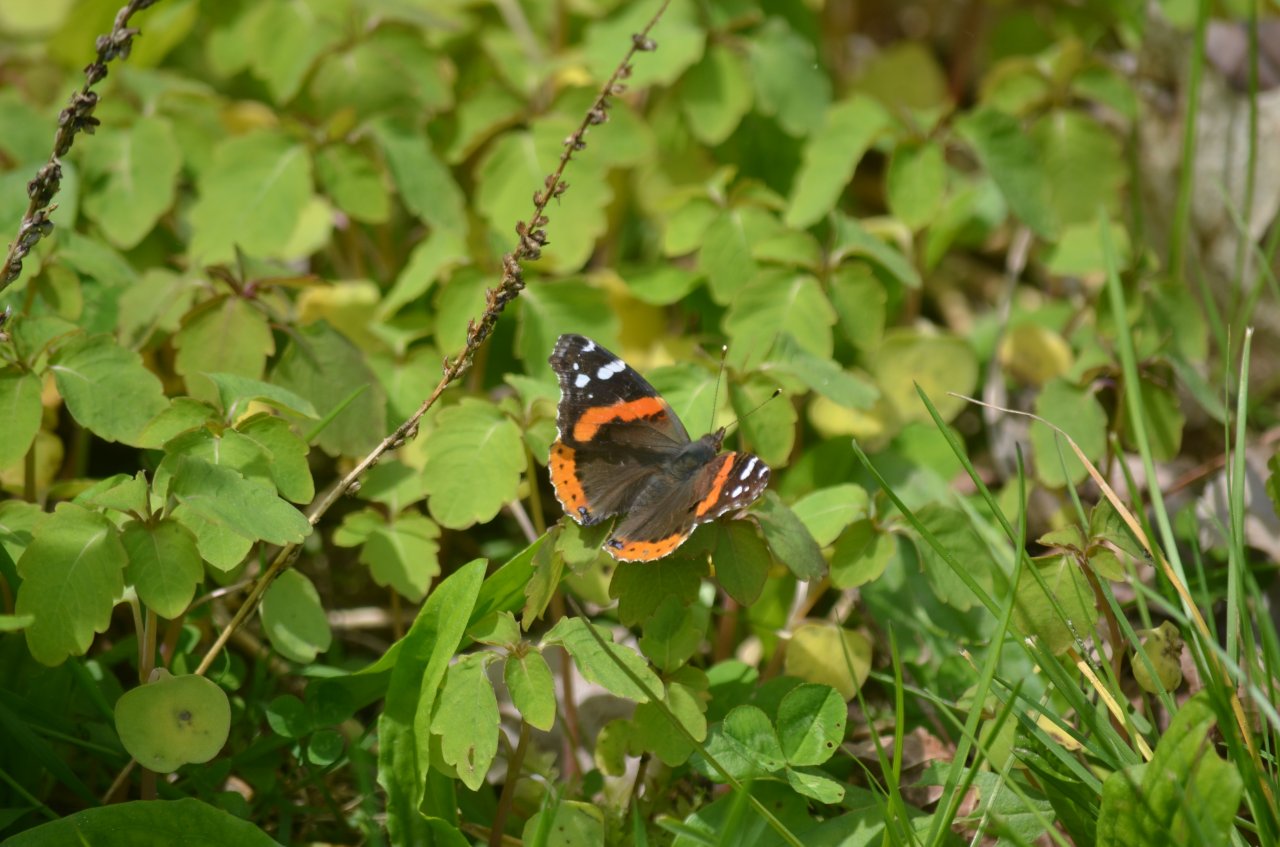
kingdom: Animalia
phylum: Arthropoda
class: Insecta
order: Lepidoptera
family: Nymphalidae
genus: Vanessa
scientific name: Vanessa atalanta
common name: Red Admiral
